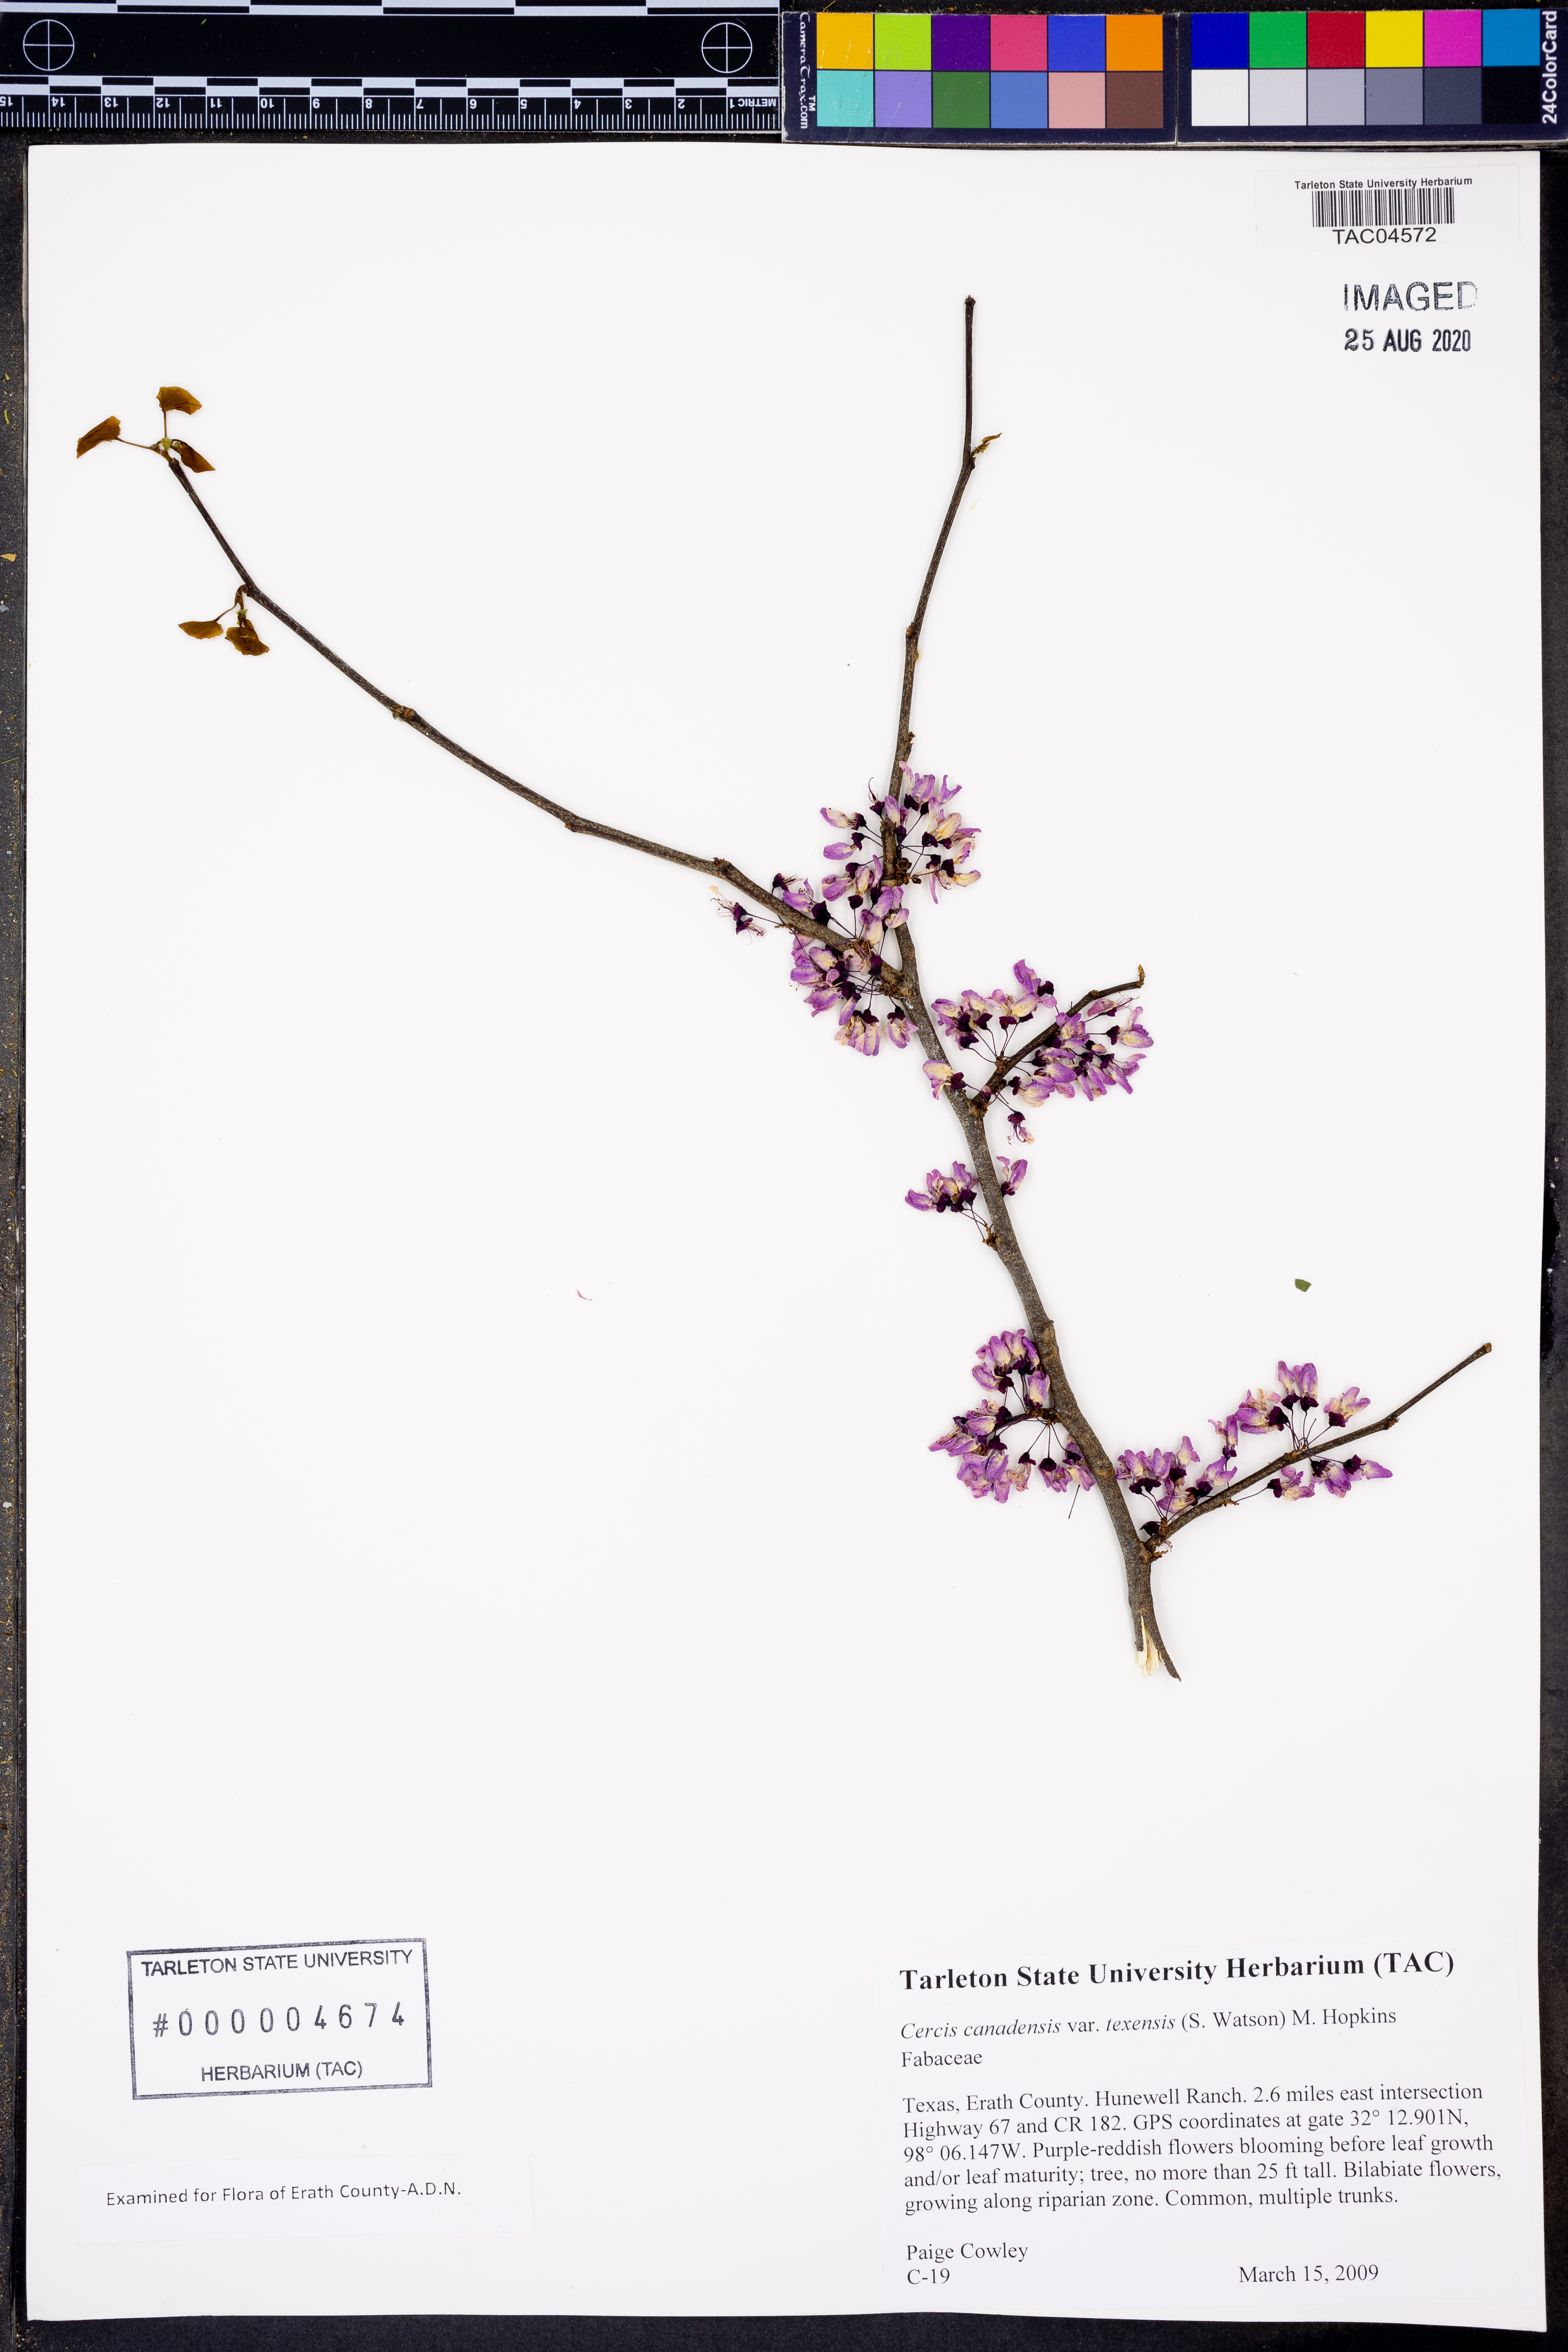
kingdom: Plantae
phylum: Tracheophyta
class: Magnoliopsida
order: Fabales
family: Fabaceae
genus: Cercis
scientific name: Cercis canadensis
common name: Eastern redbud
